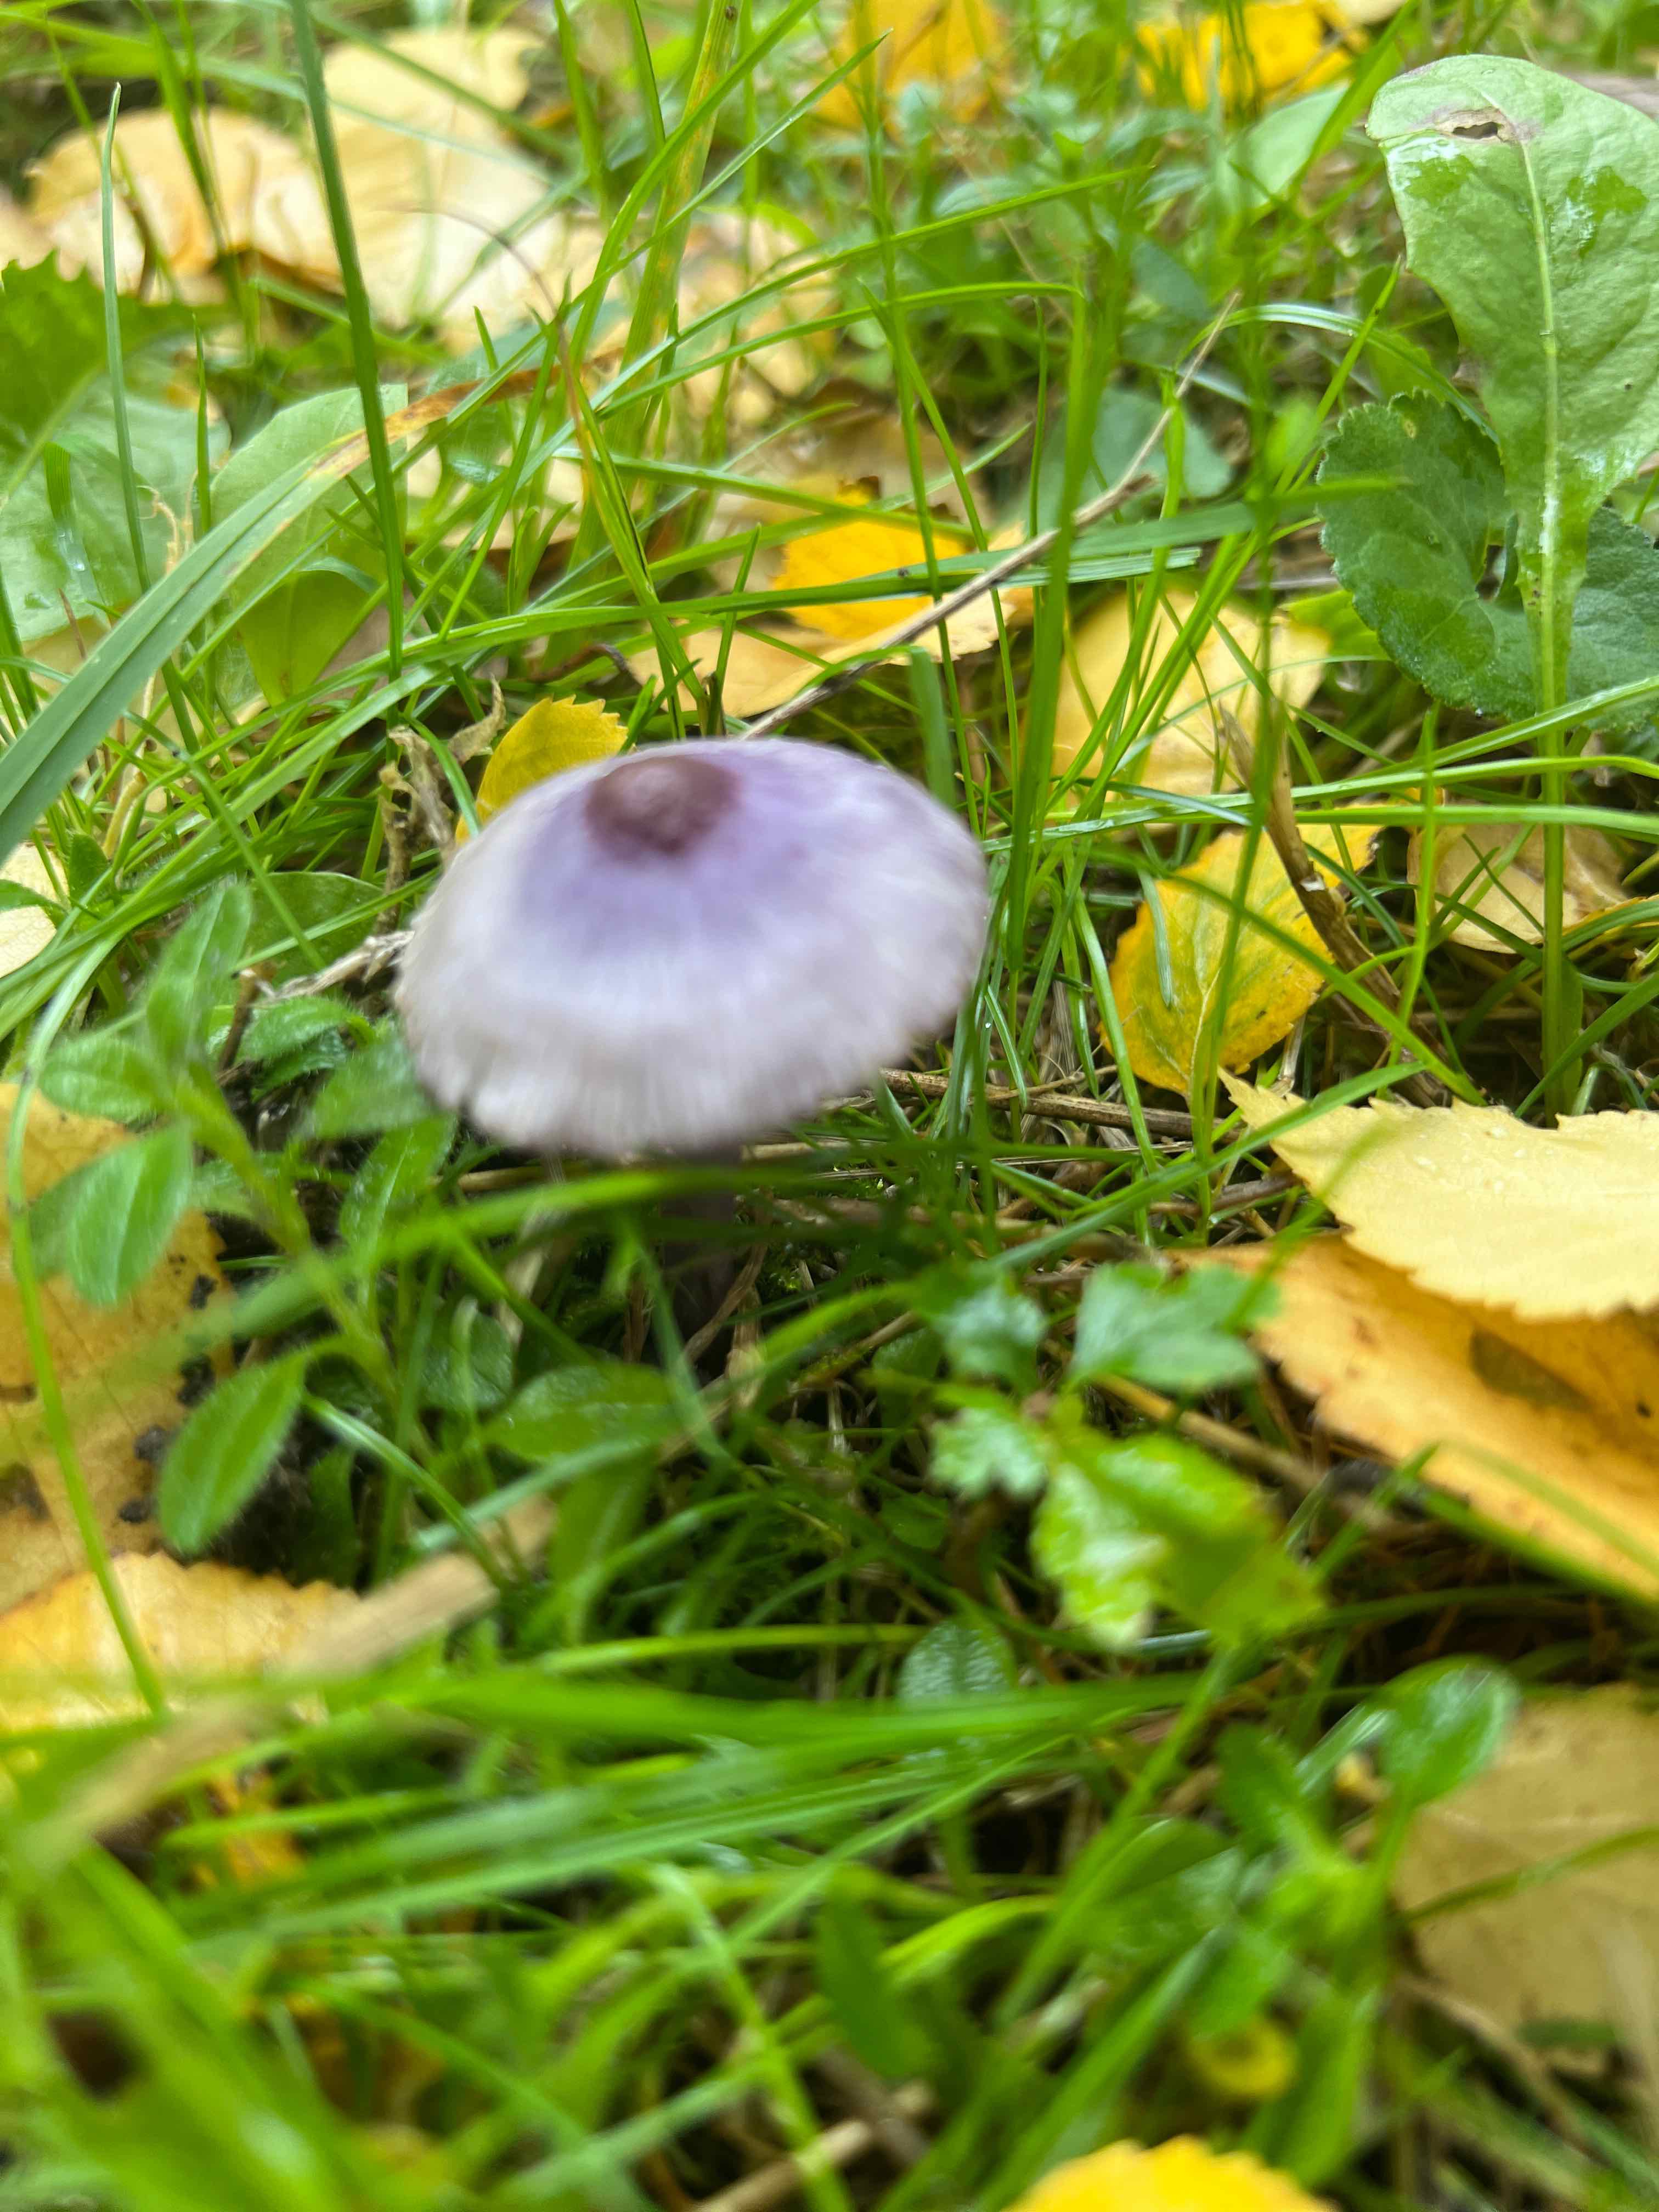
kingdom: Fungi
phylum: Basidiomycota
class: Agaricomycetes
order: Agaricales
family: Inocybaceae
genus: Inocybe
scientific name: Inocybe geophylla
